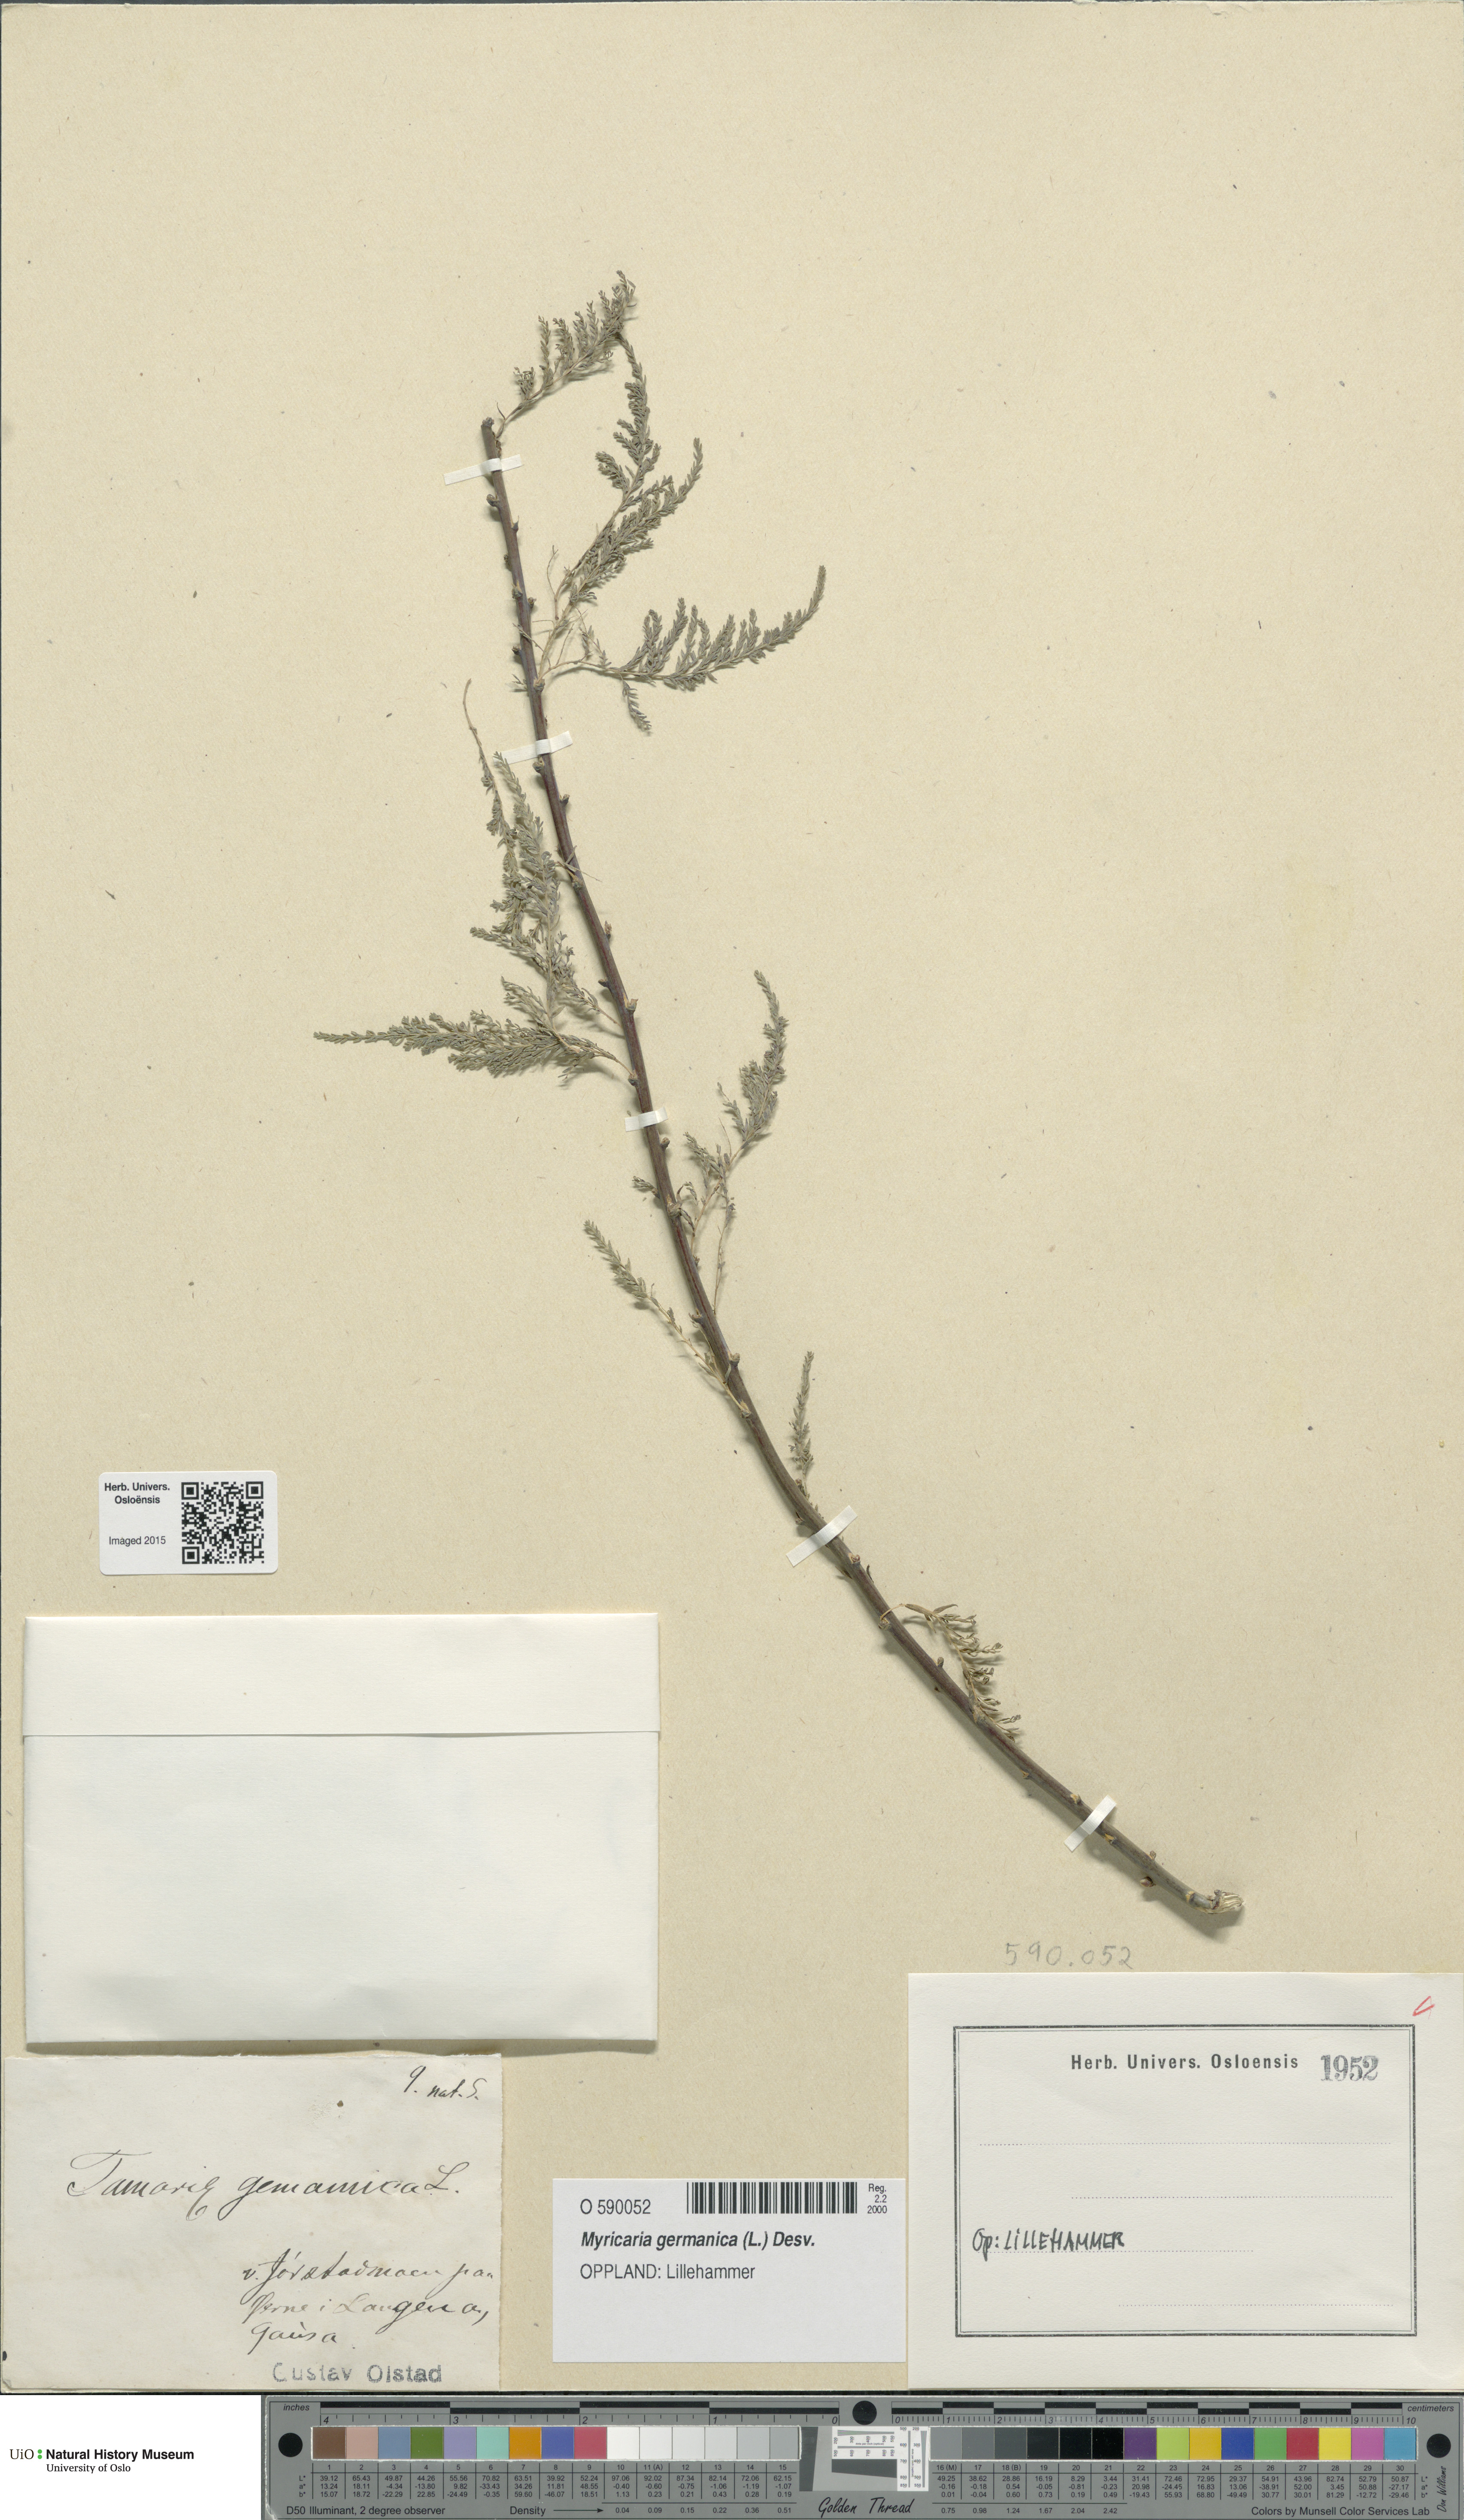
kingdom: Plantae
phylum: Tracheophyta
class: Magnoliopsida
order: Caryophyllales
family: Tamaricaceae
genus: Myricaria
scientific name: Myricaria germanica
